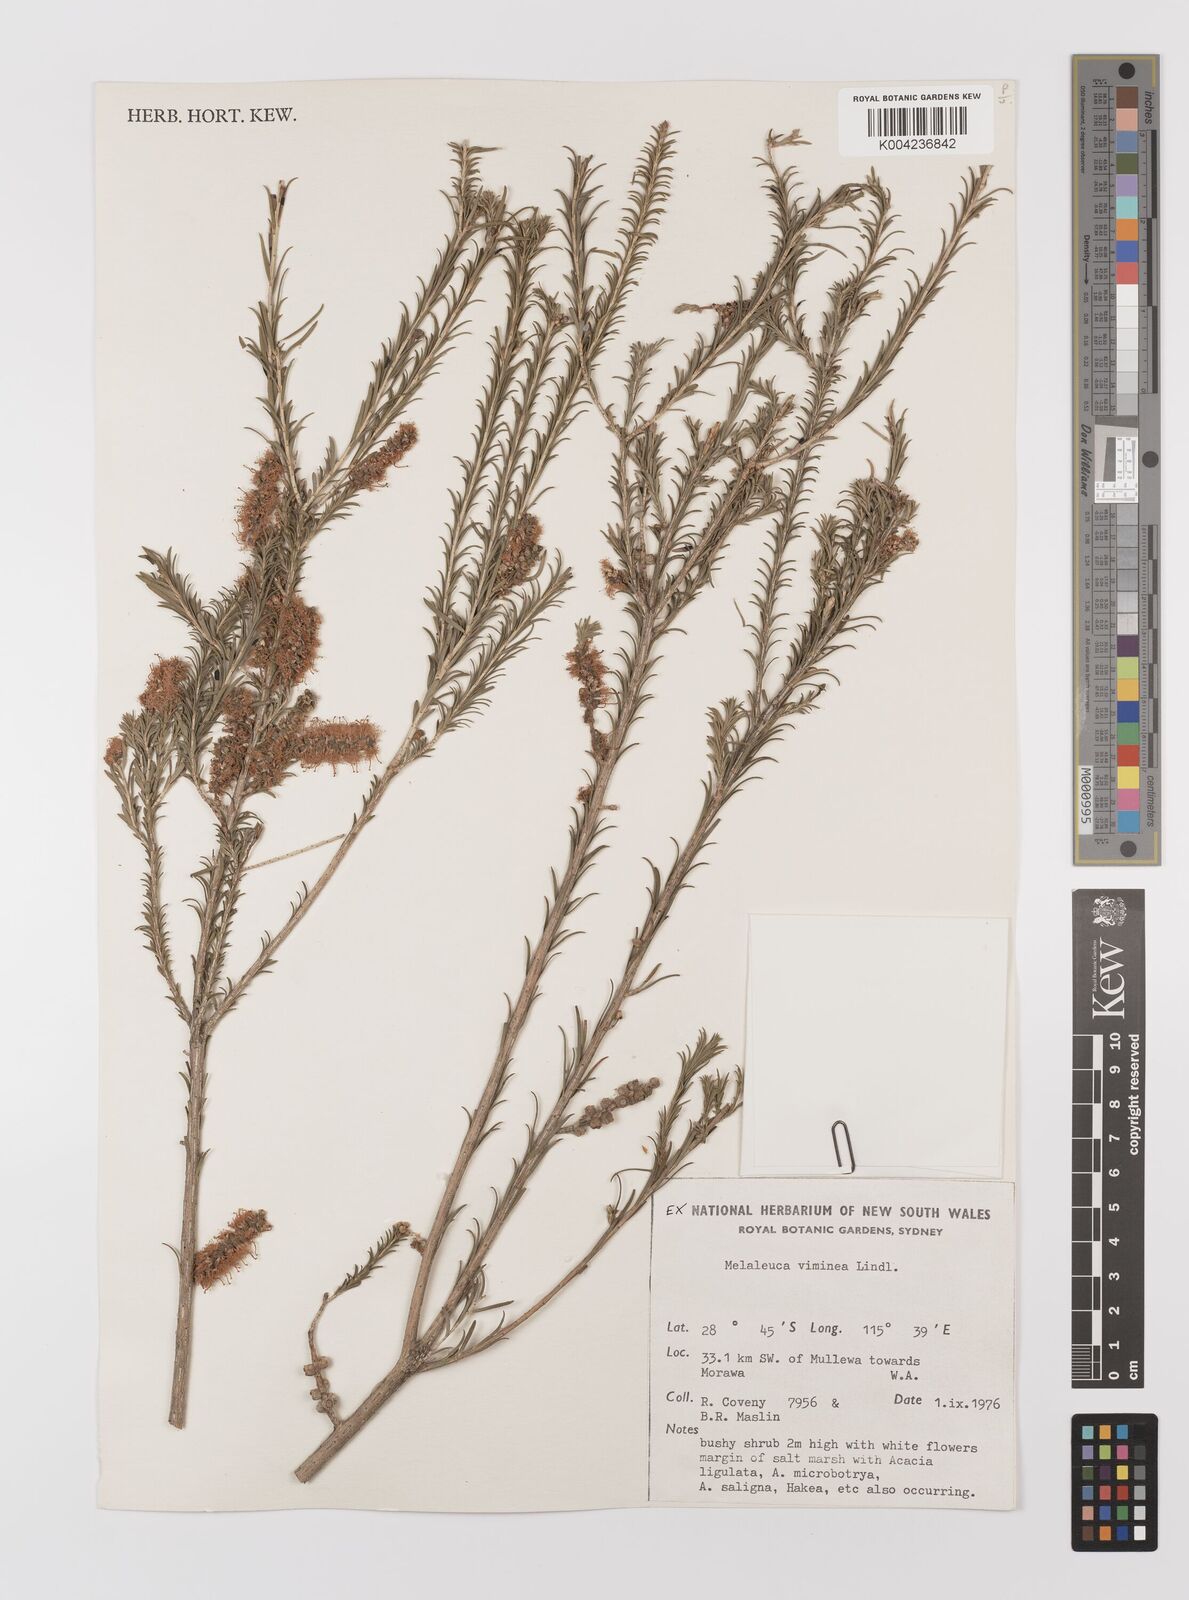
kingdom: Plantae
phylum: Tracheophyta
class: Magnoliopsida
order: Myrtales
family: Myrtaceae
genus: Melaleuca
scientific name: Melaleuca viminea
